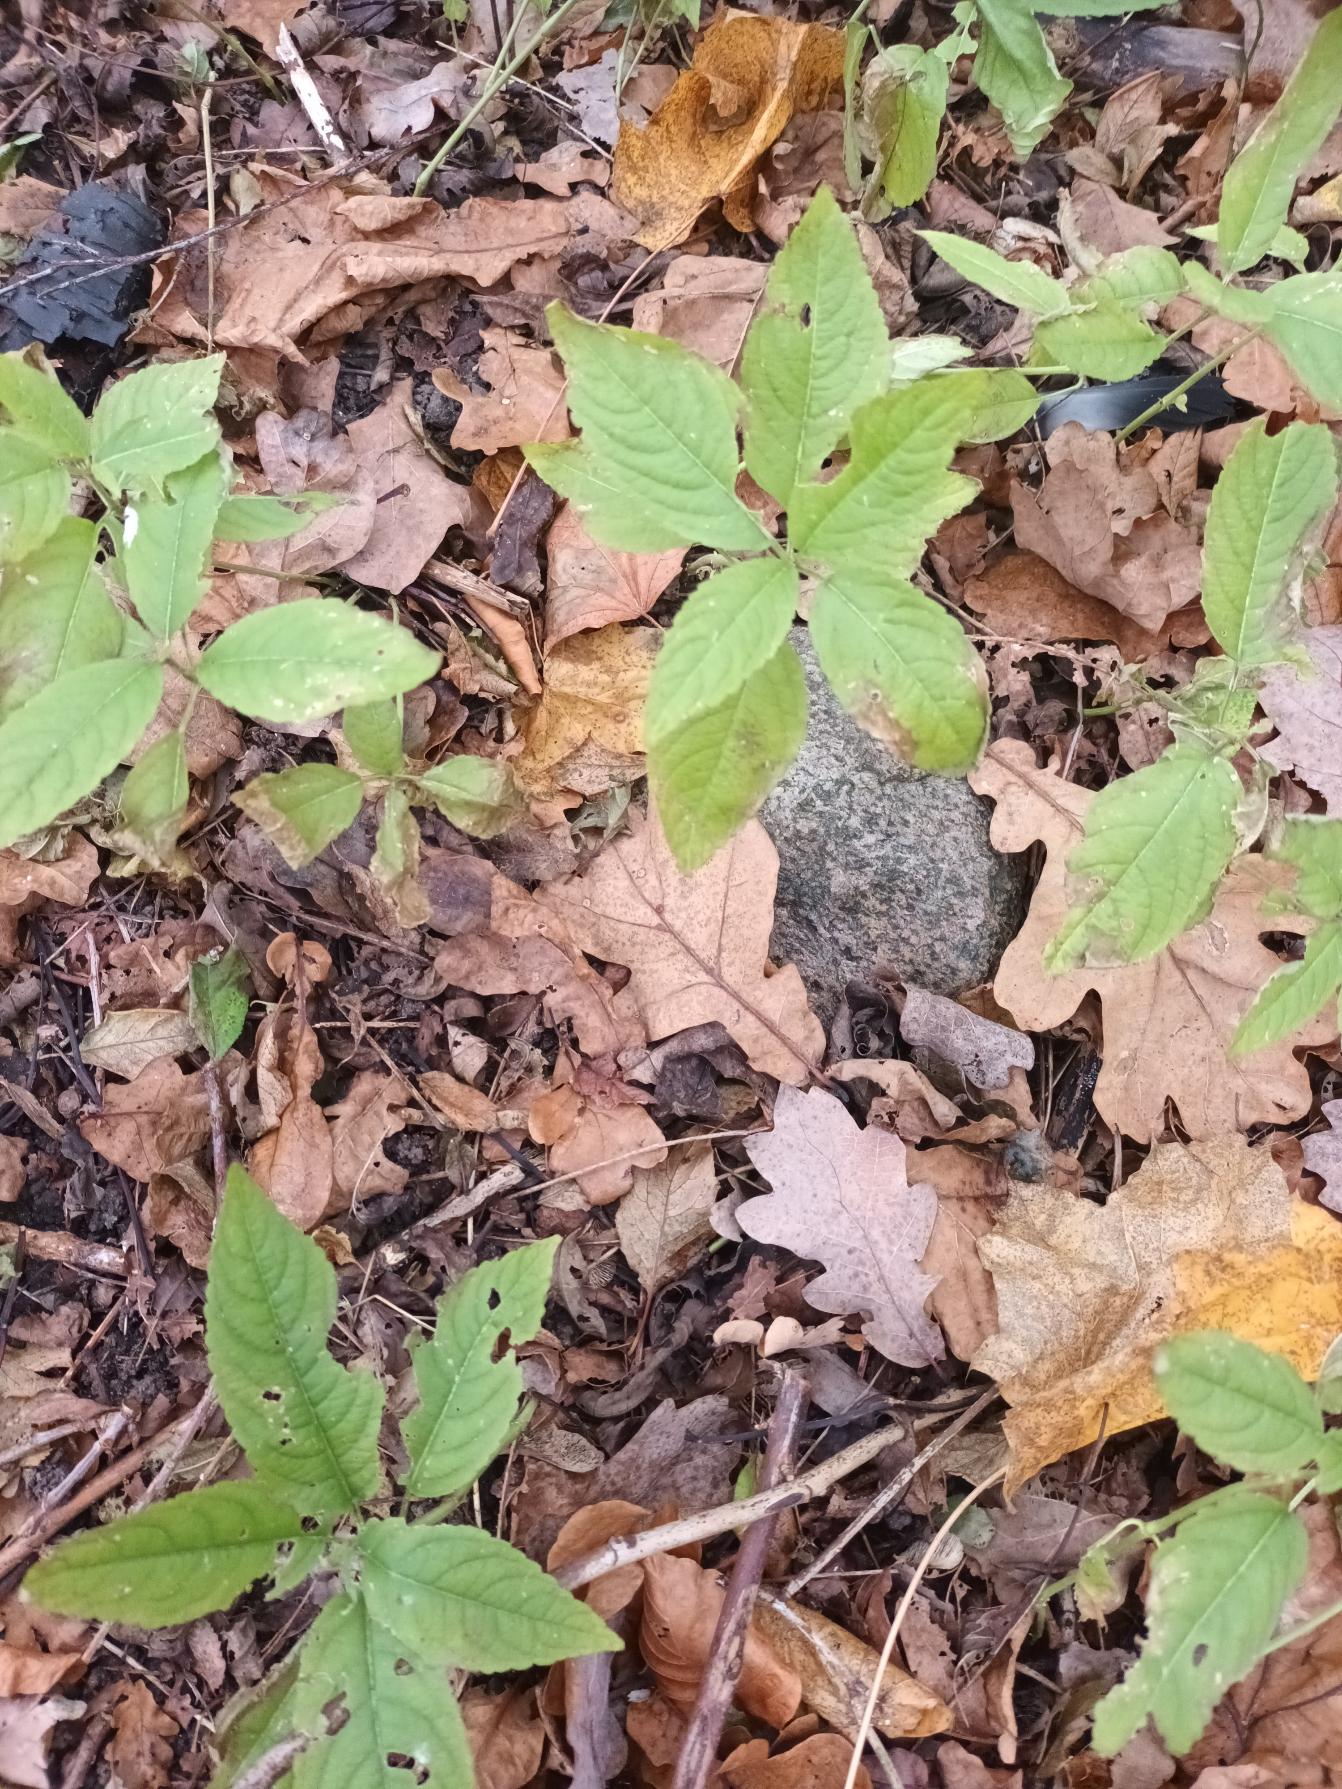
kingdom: Plantae
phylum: Tracheophyta
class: Magnoliopsida
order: Malpighiales
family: Euphorbiaceae
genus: Mercurialis
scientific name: Mercurialis perennis
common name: Almindelig bingelurt
